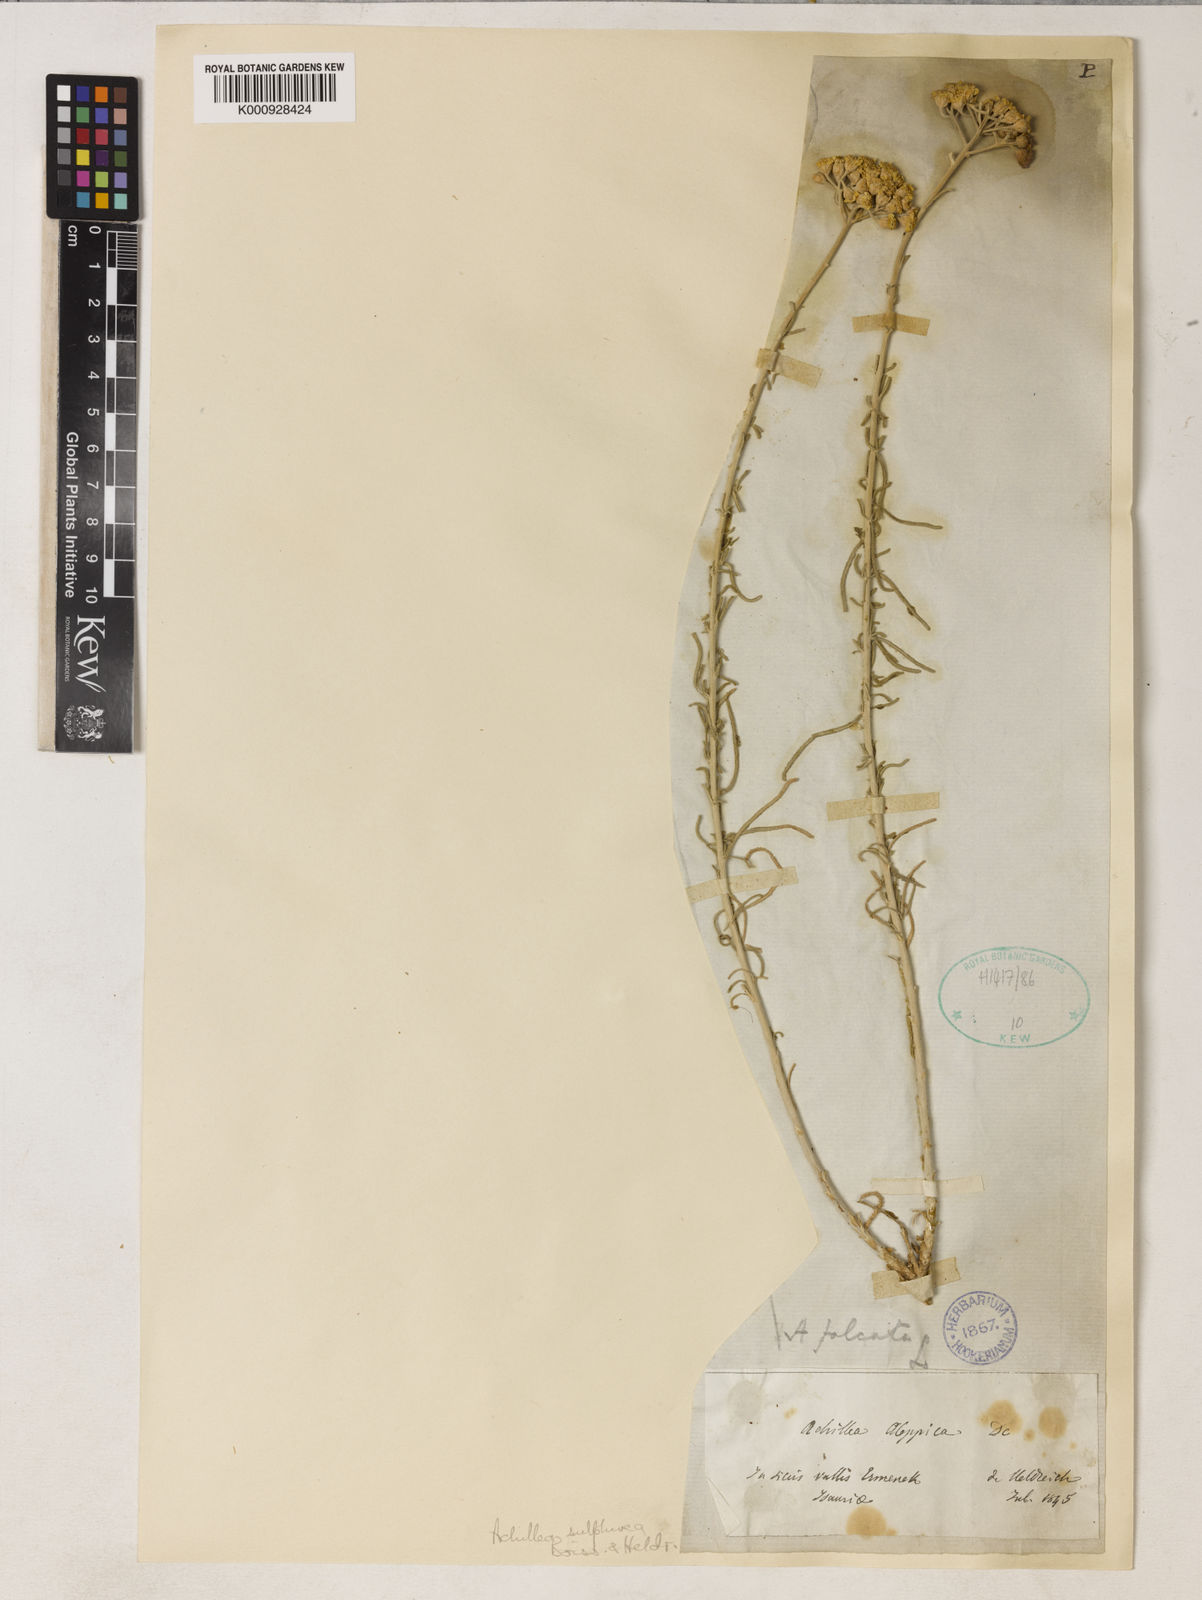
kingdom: Plantae
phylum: Tracheophyta
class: Magnoliopsida
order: Asterales
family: Asteraceae
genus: Achillea
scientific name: Achillea falcata
